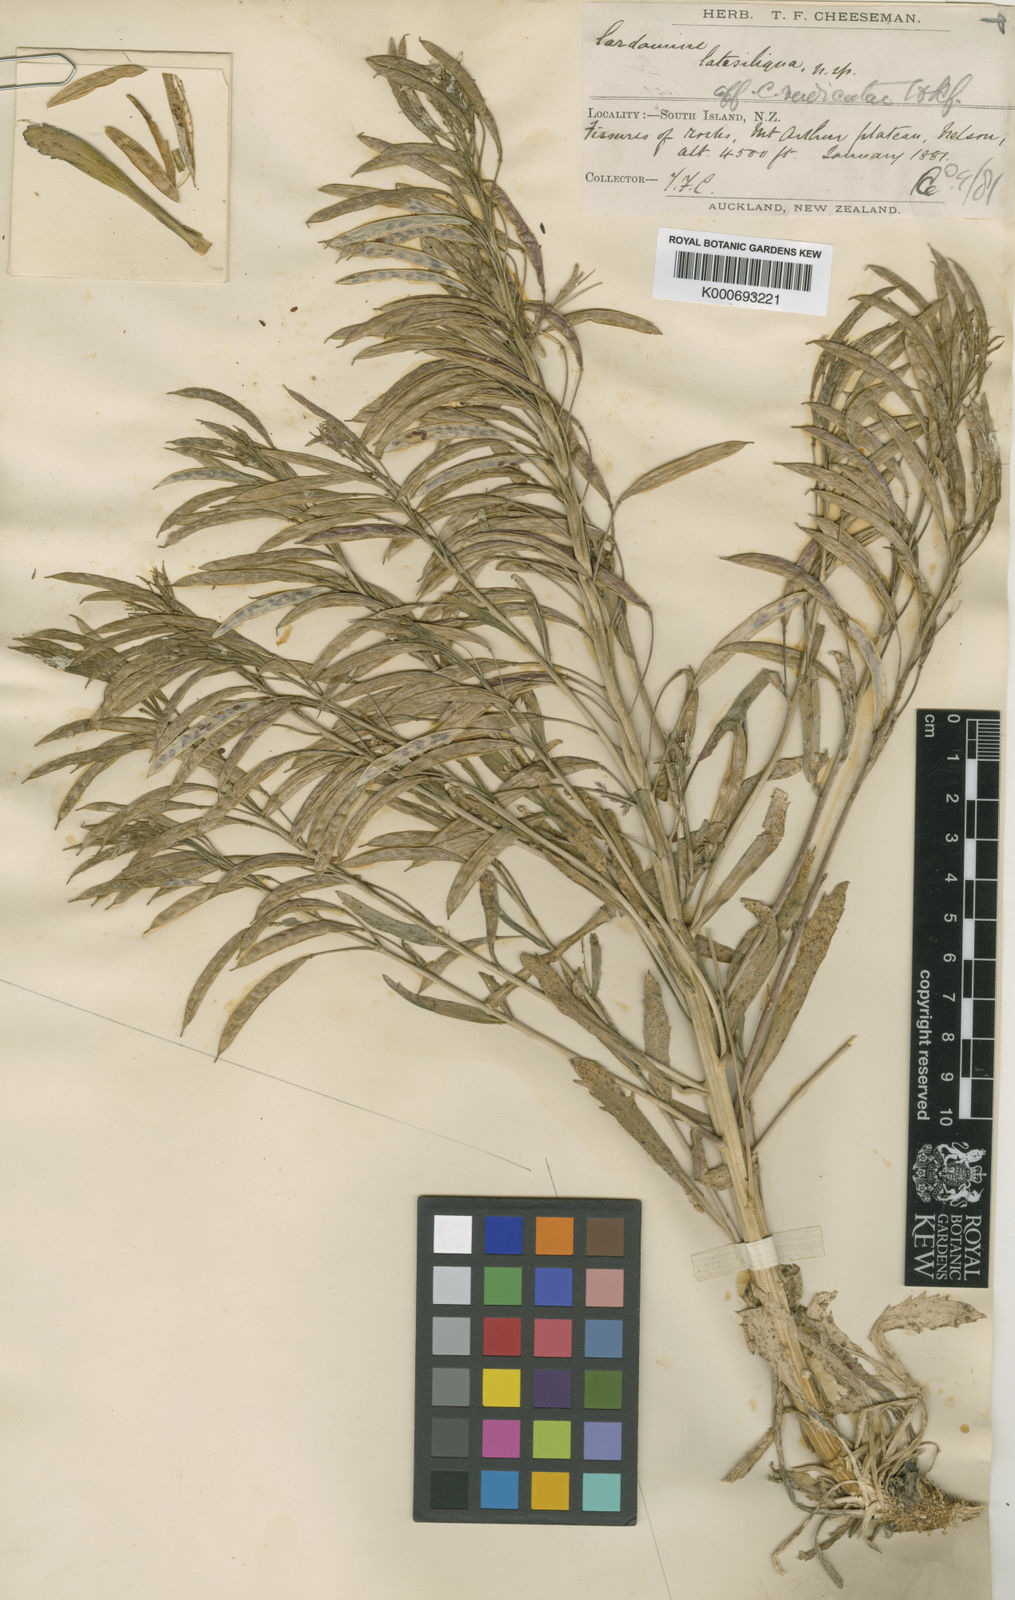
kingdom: Plantae
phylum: Tracheophyta
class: Magnoliopsida
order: Brassicales
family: Brassicaceae
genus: Pachycladon
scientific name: Pachycladon
